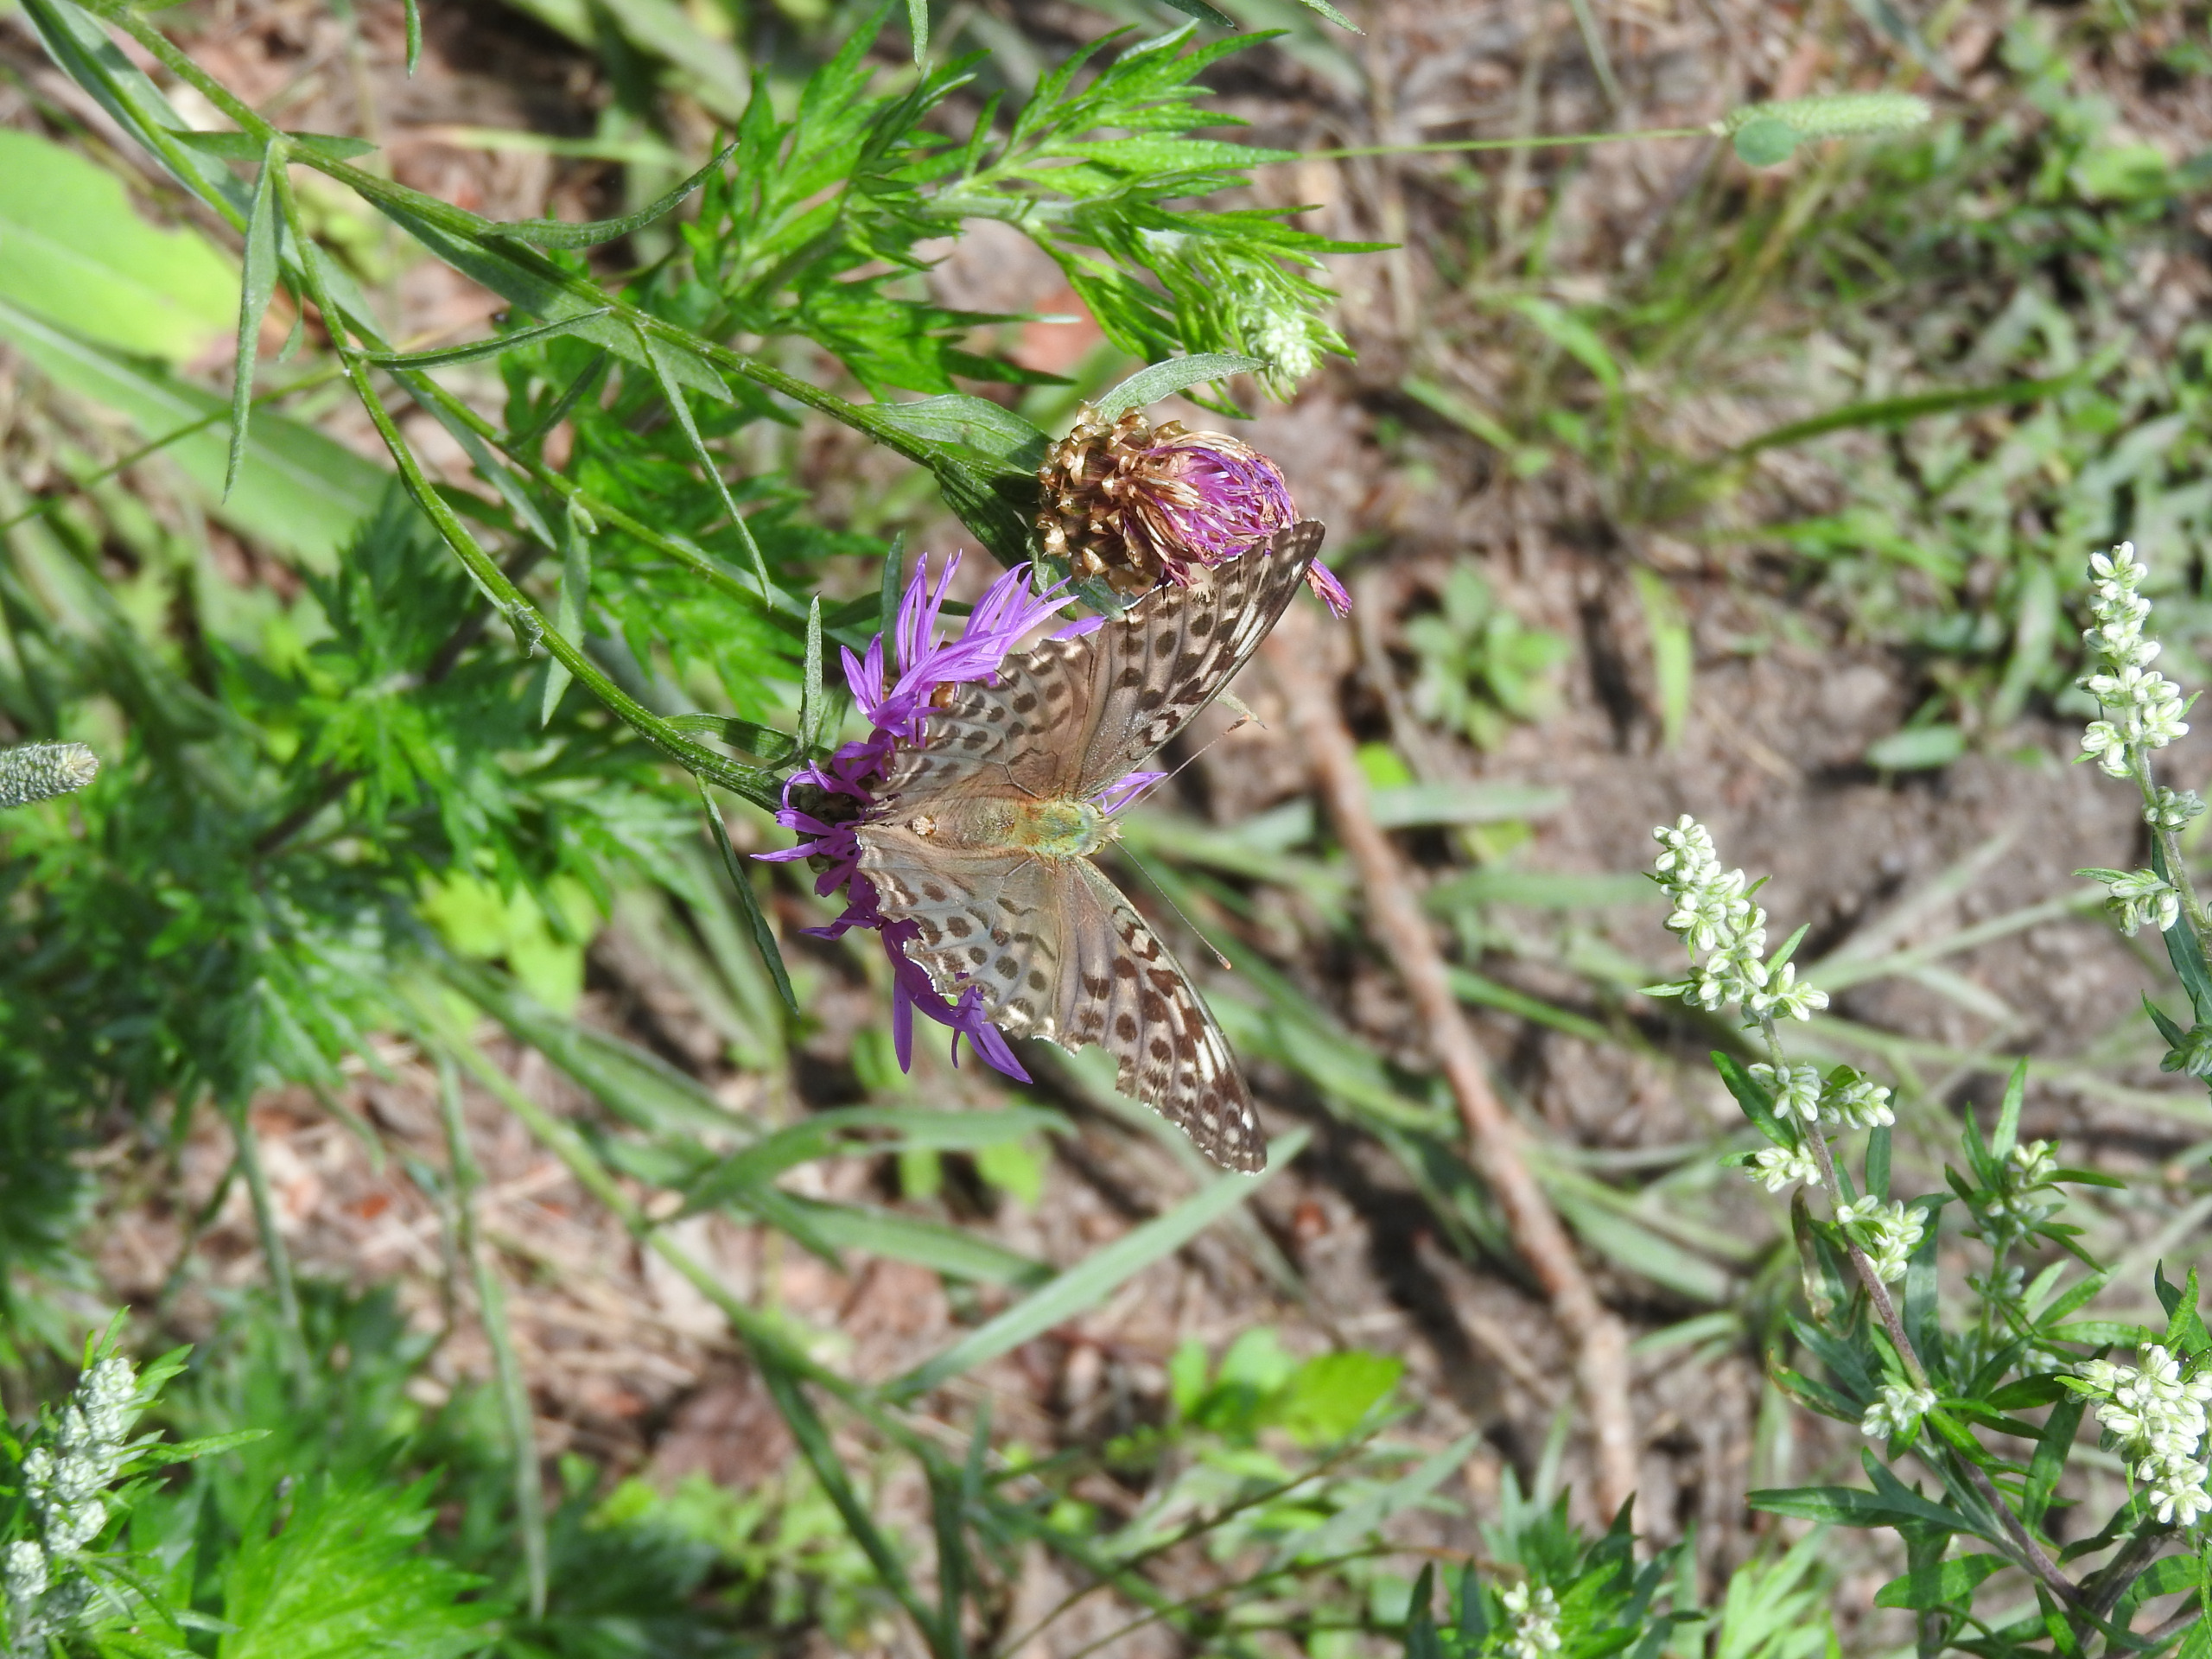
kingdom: Animalia
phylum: Arthropoda
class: Insecta
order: Lepidoptera
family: Nymphalidae
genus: Argynnis
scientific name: Argynnis paphia
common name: Kejserkåbe
